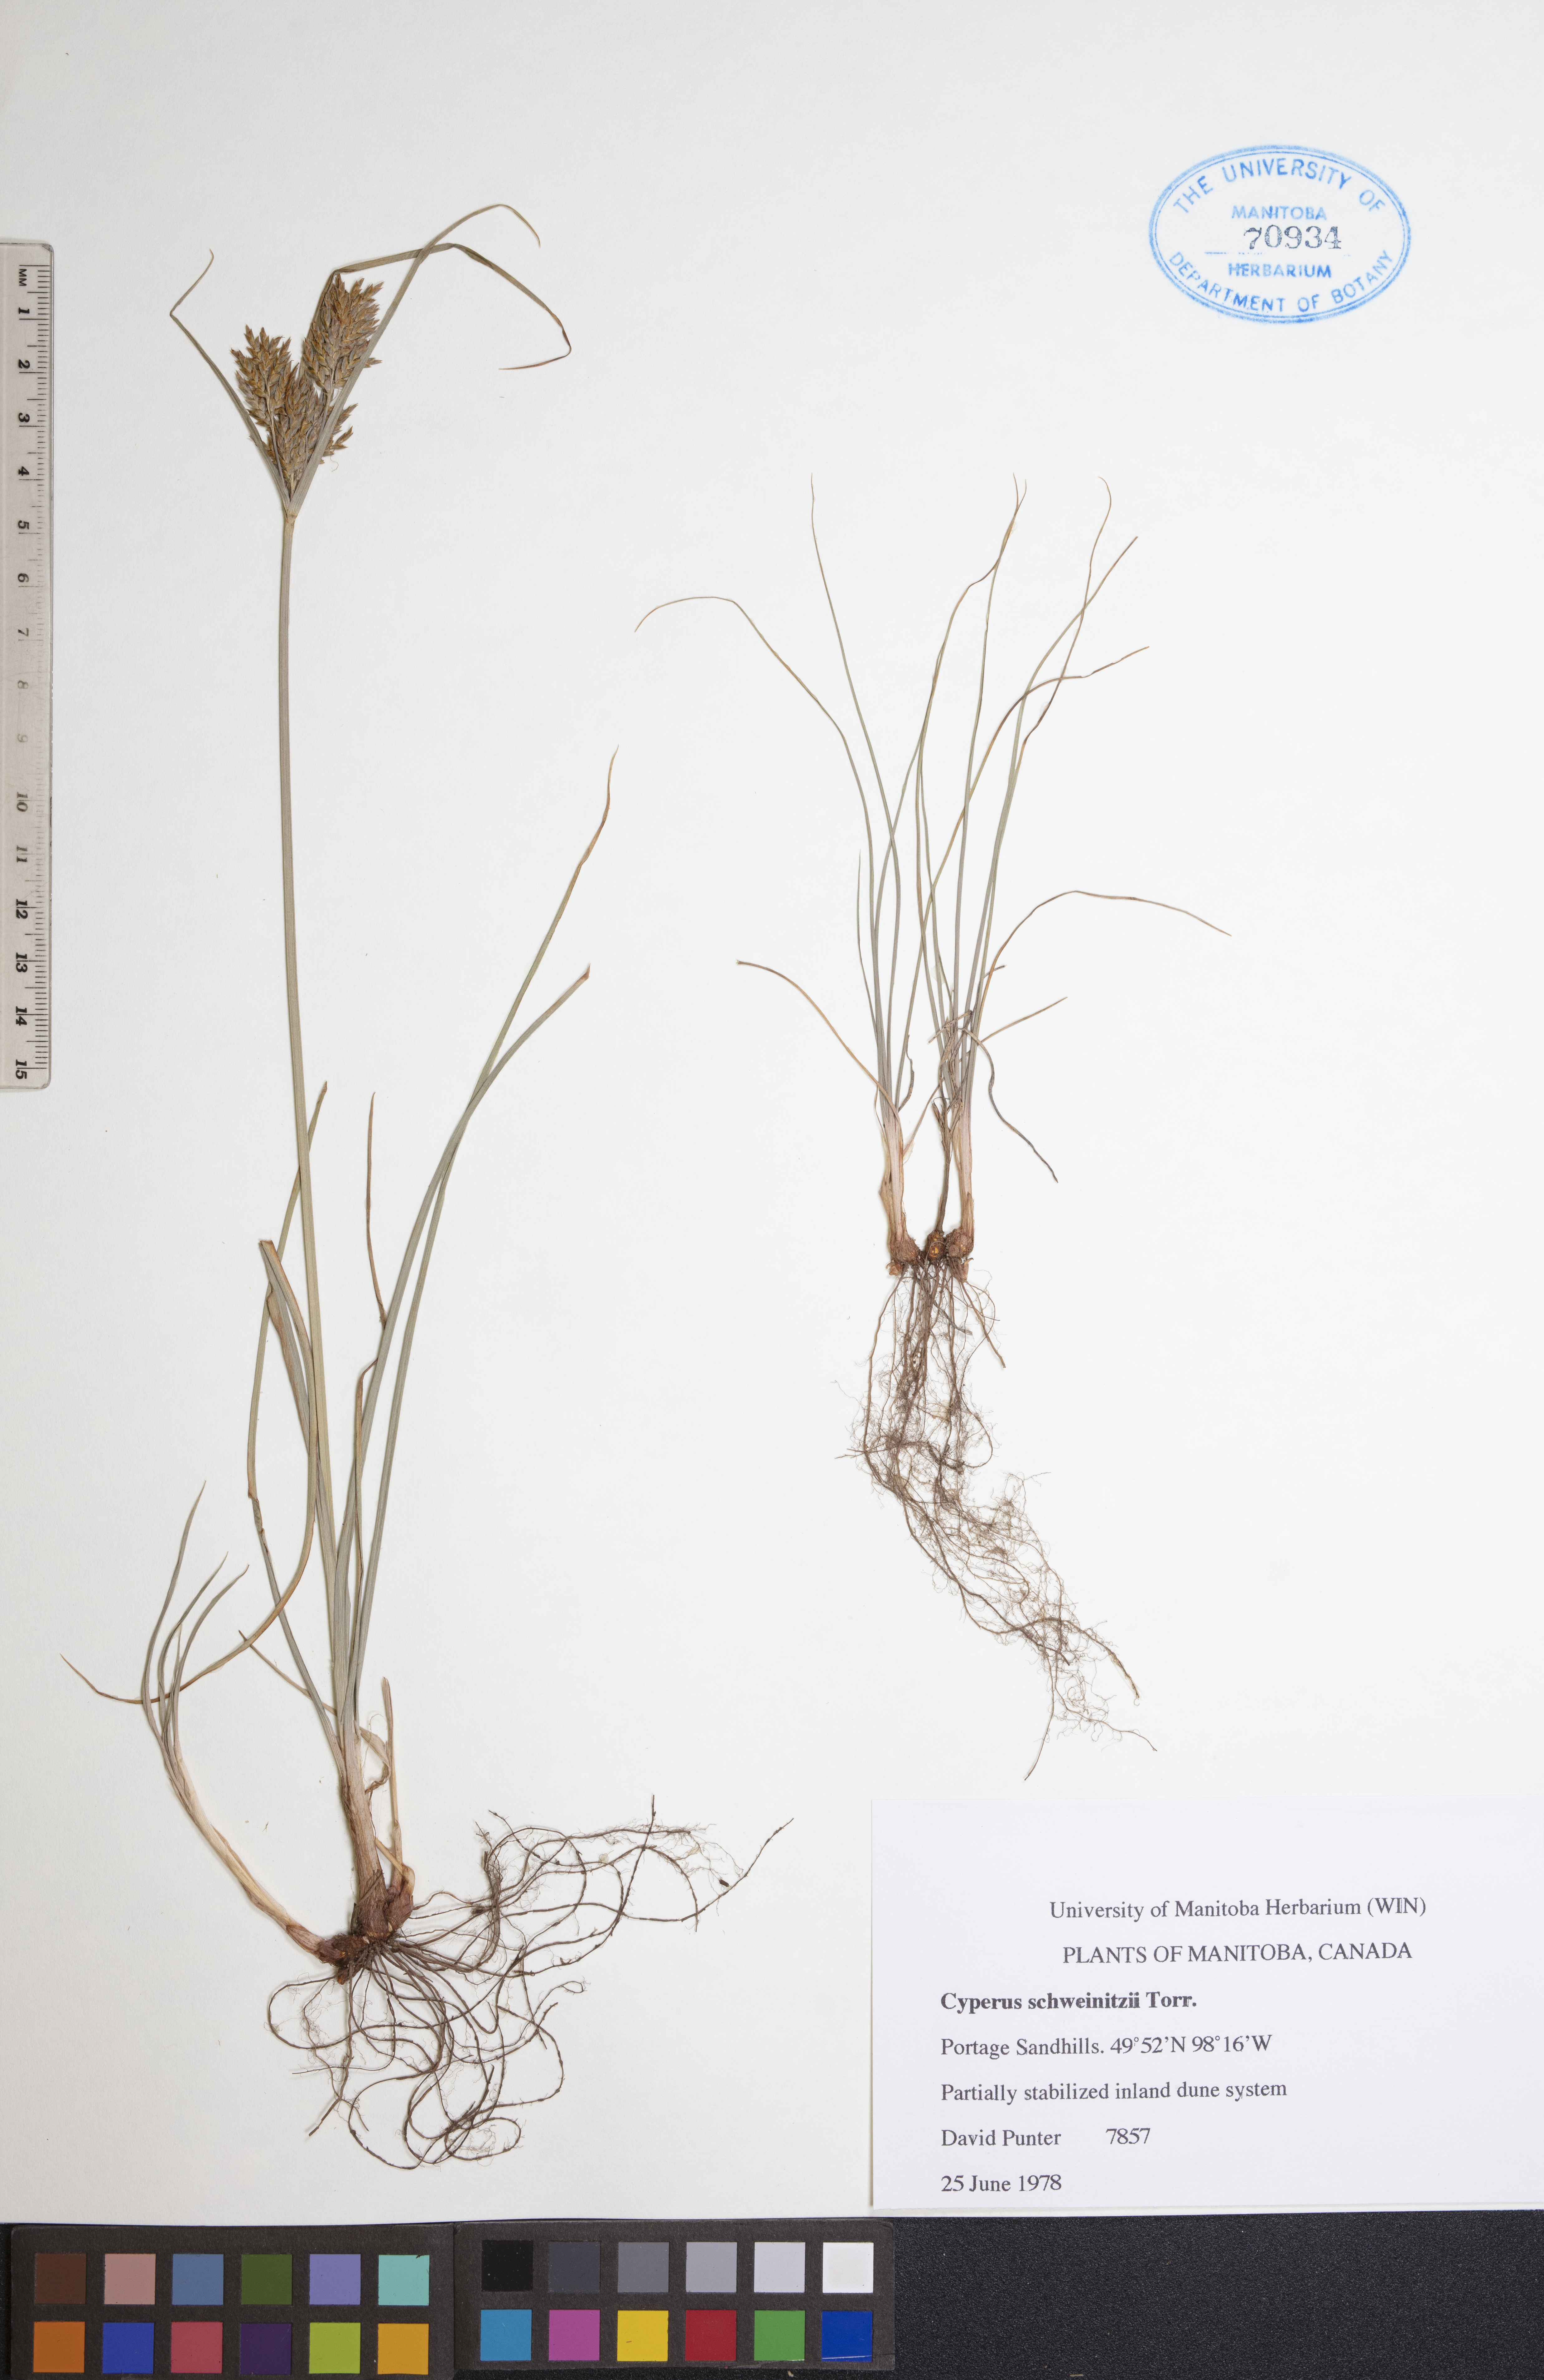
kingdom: Plantae
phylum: Tracheophyta
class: Liliopsida
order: Poales
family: Cyperaceae
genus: Cyperus
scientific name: Cyperus schweinitzii
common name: Schweinitz's cyperus
